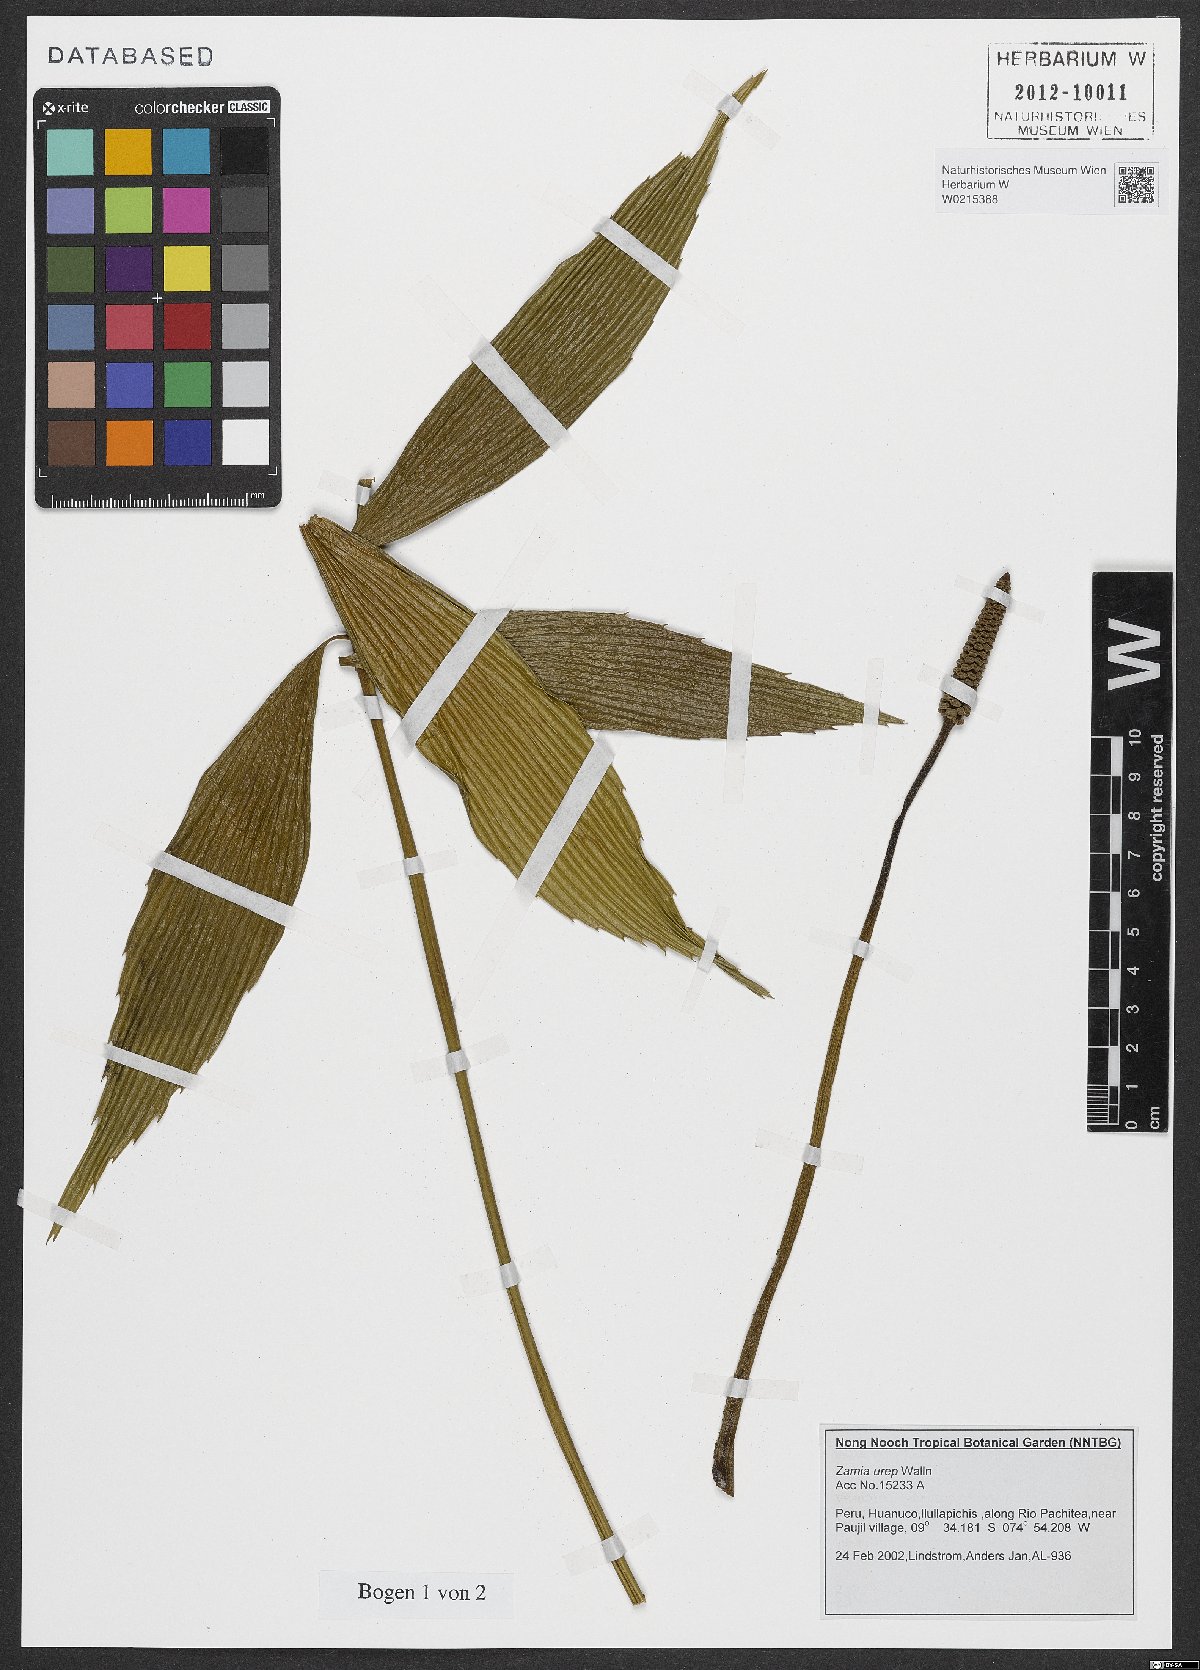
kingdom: Plantae
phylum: Tracheophyta
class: Cycadopsida
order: Cycadales
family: Zamiaceae
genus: Zamia
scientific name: Zamia urep
